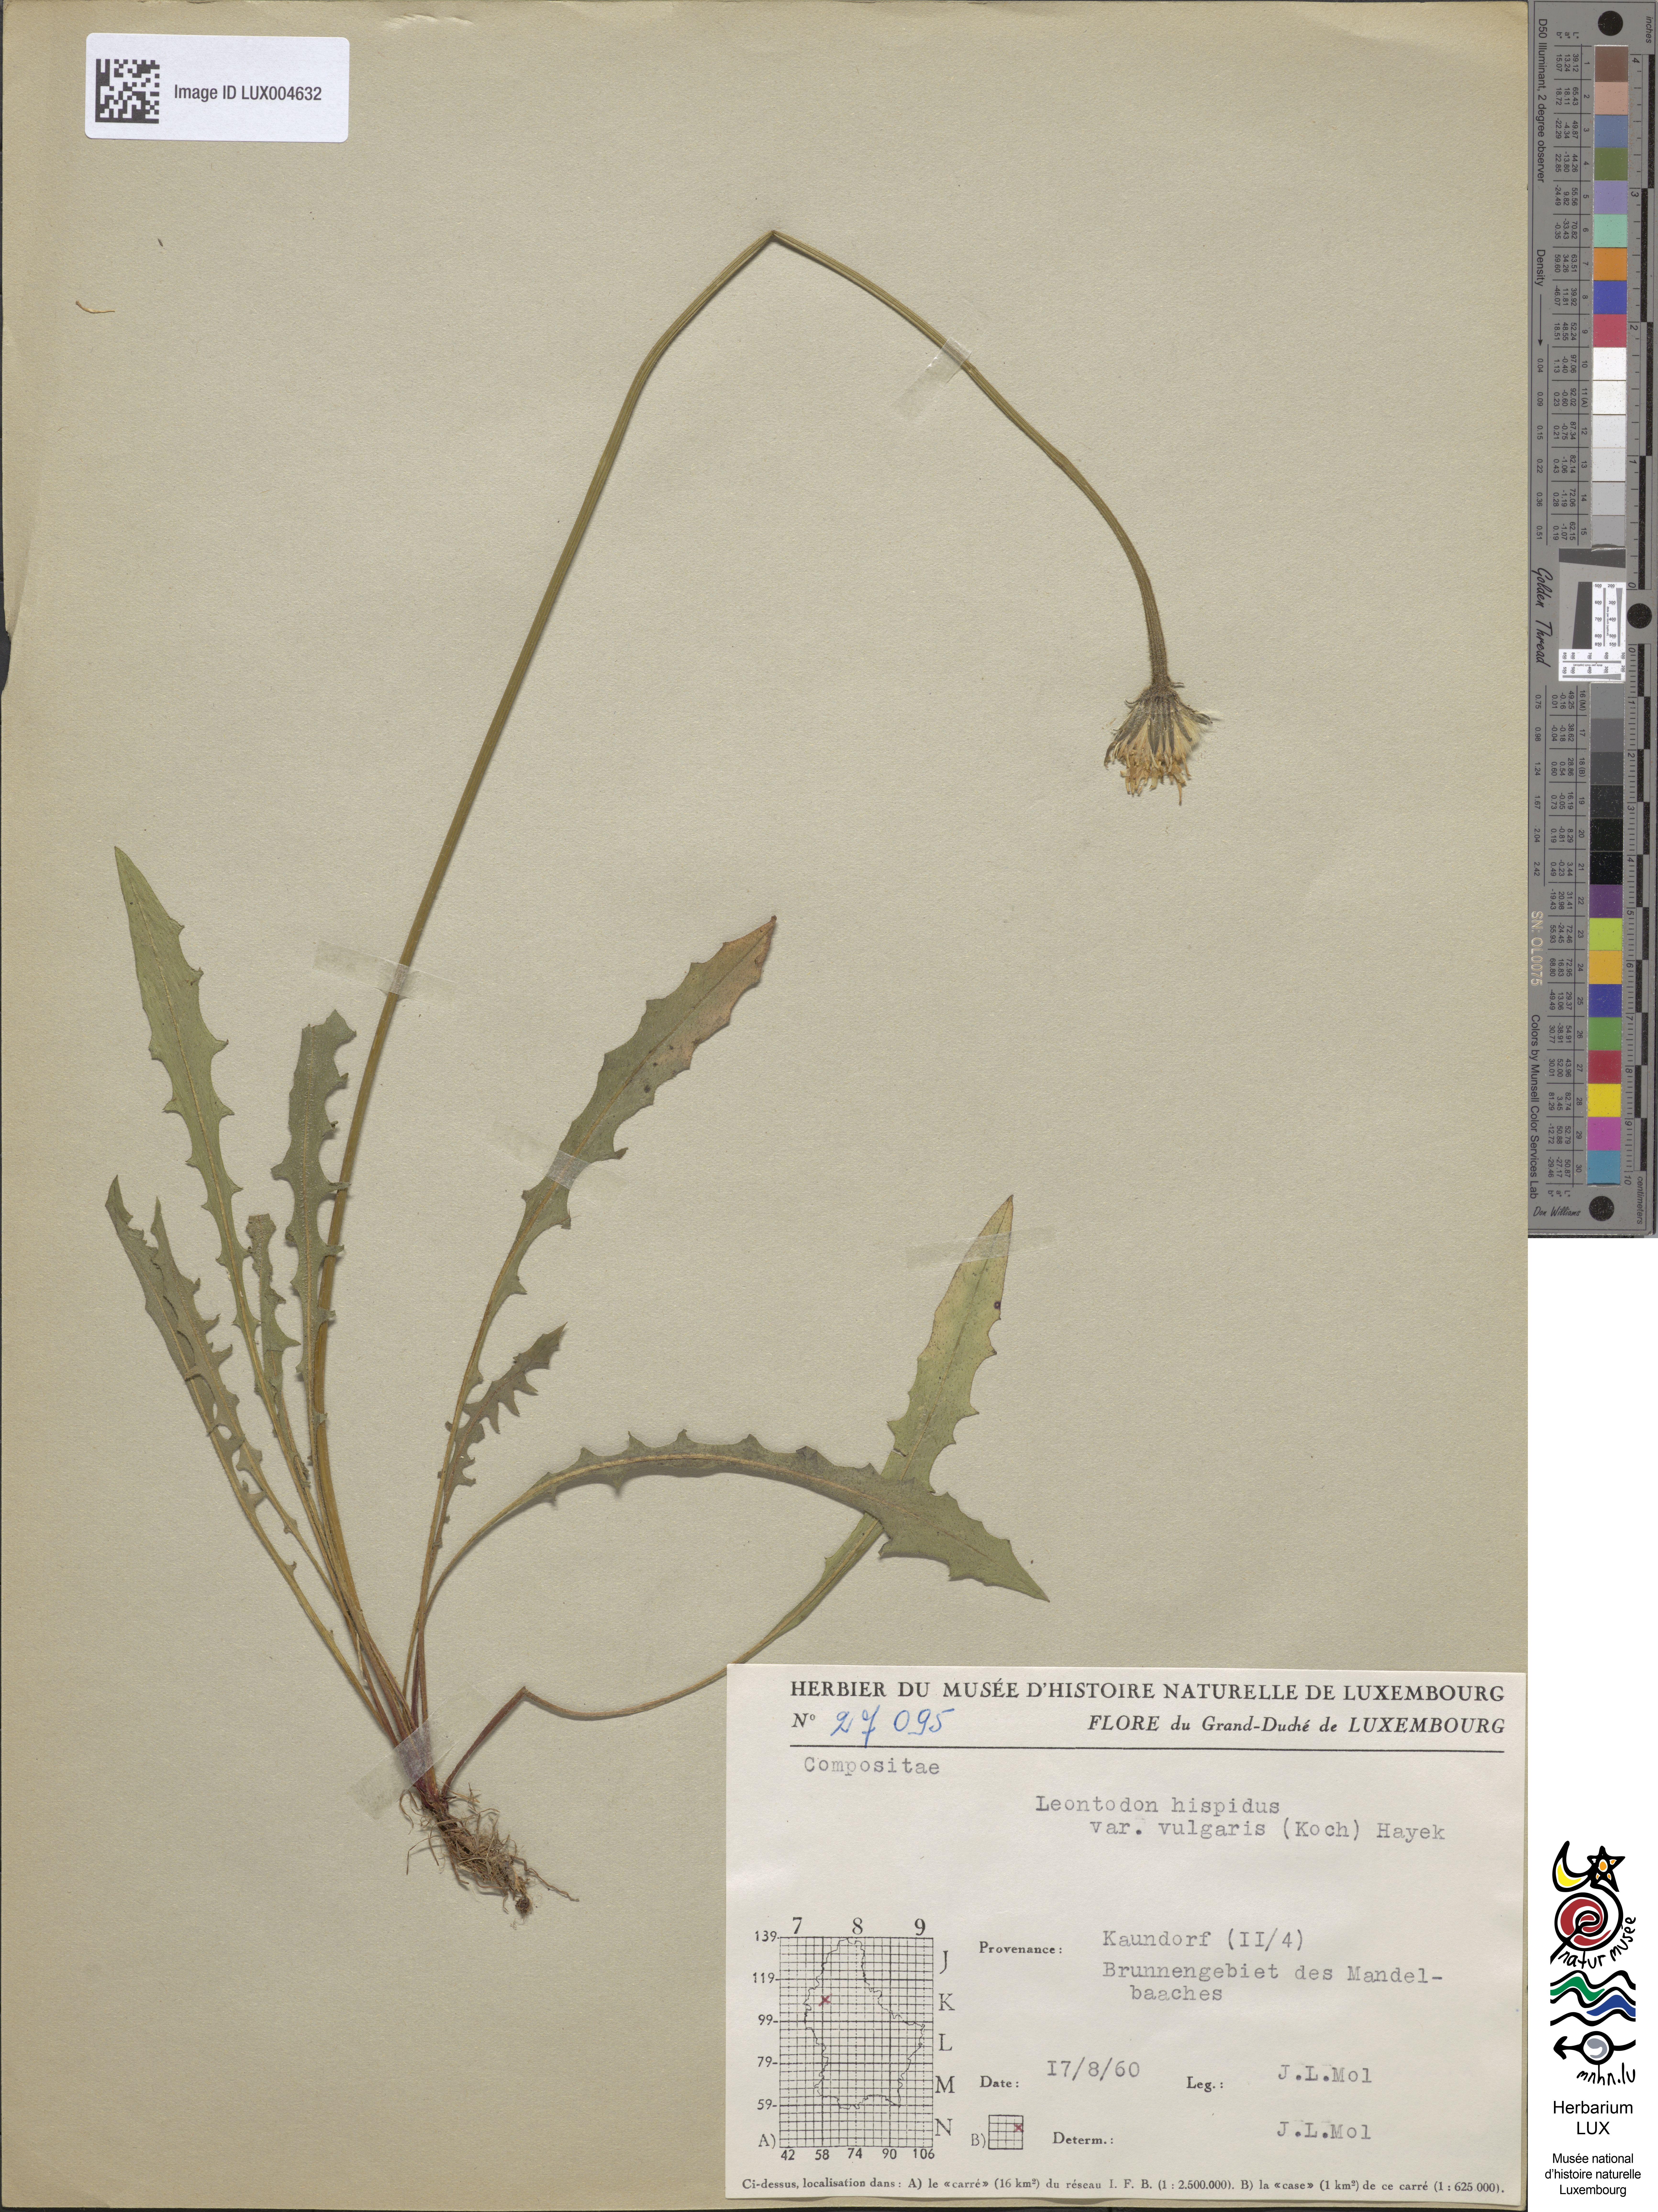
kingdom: Plantae
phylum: Tracheophyta
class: Magnoliopsida
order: Asterales
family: Asteraceae
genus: Leontodon
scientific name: Leontodon hispidus
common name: Rough hawkbit
